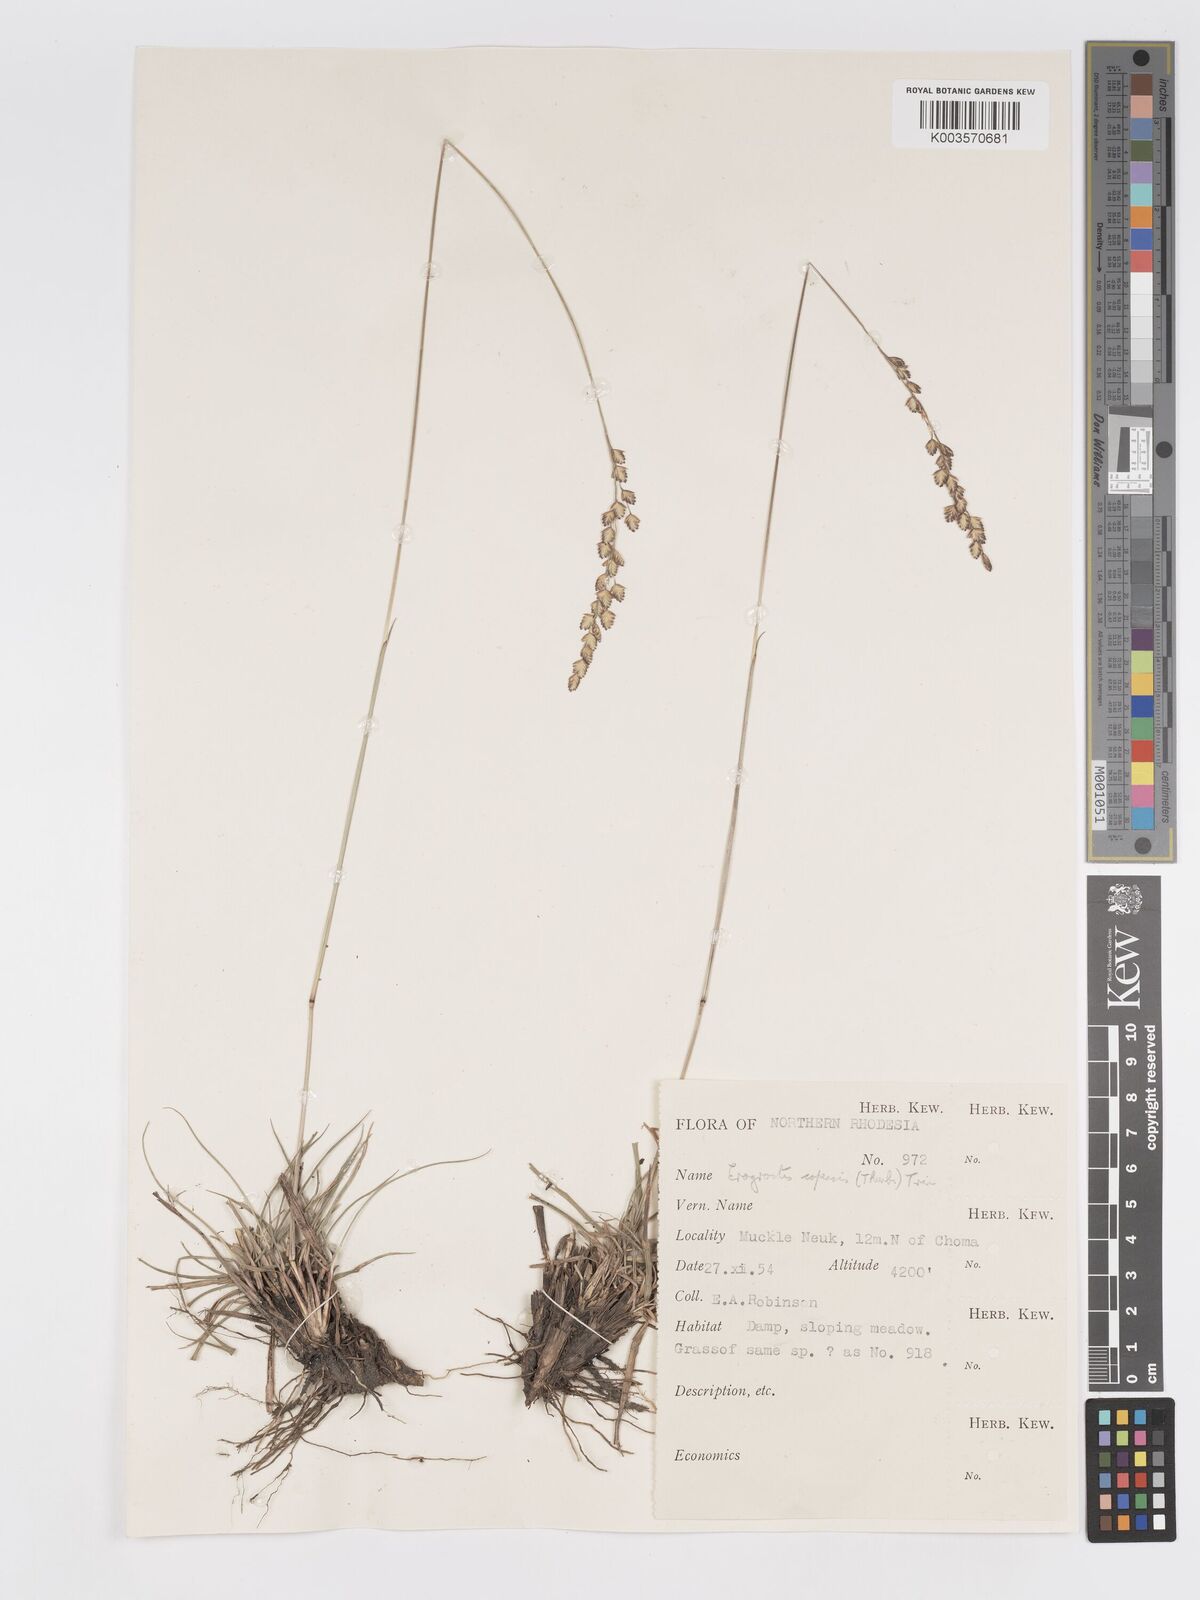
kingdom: Plantae
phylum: Tracheophyta
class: Liliopsida
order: Poales
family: Poaceae
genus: Eragrostis
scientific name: Eragrostis capensis
